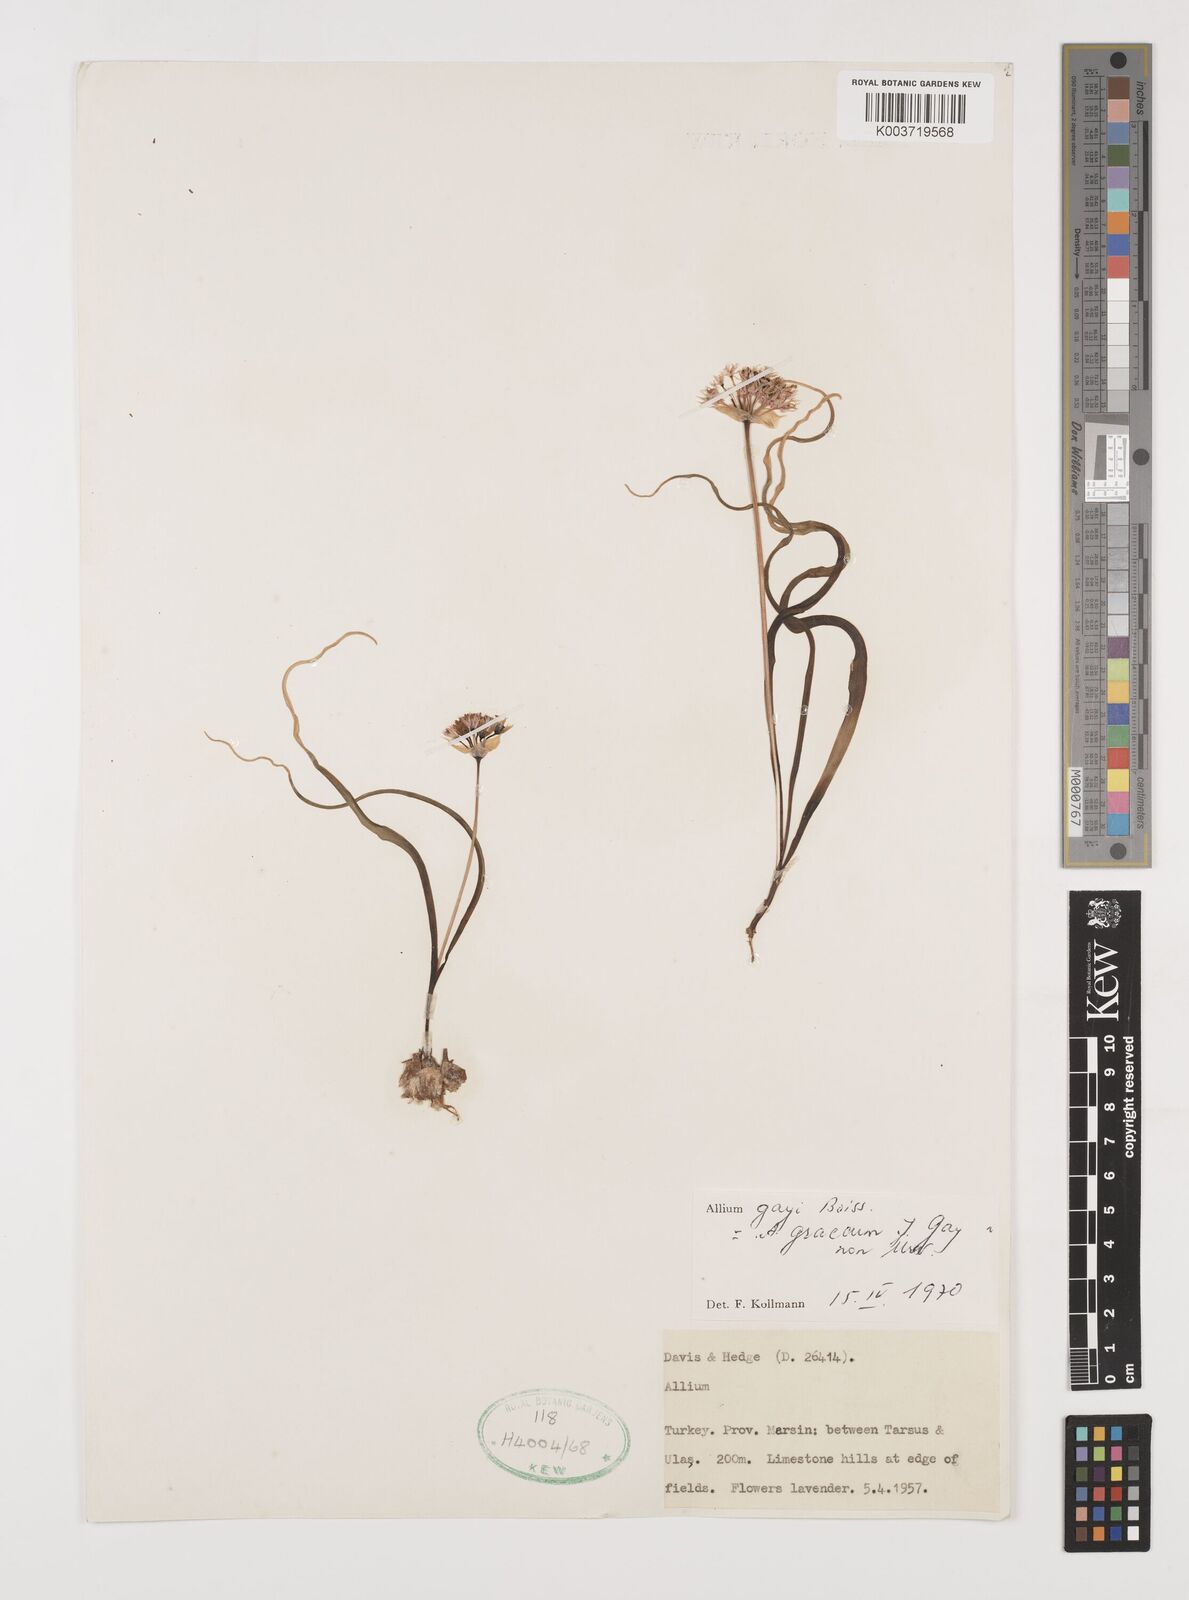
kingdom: Plantae
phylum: Tracheophyta
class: Liliopsida
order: Asparagales
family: Amaryllidaceae
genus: Allium
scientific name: Allium orientale
